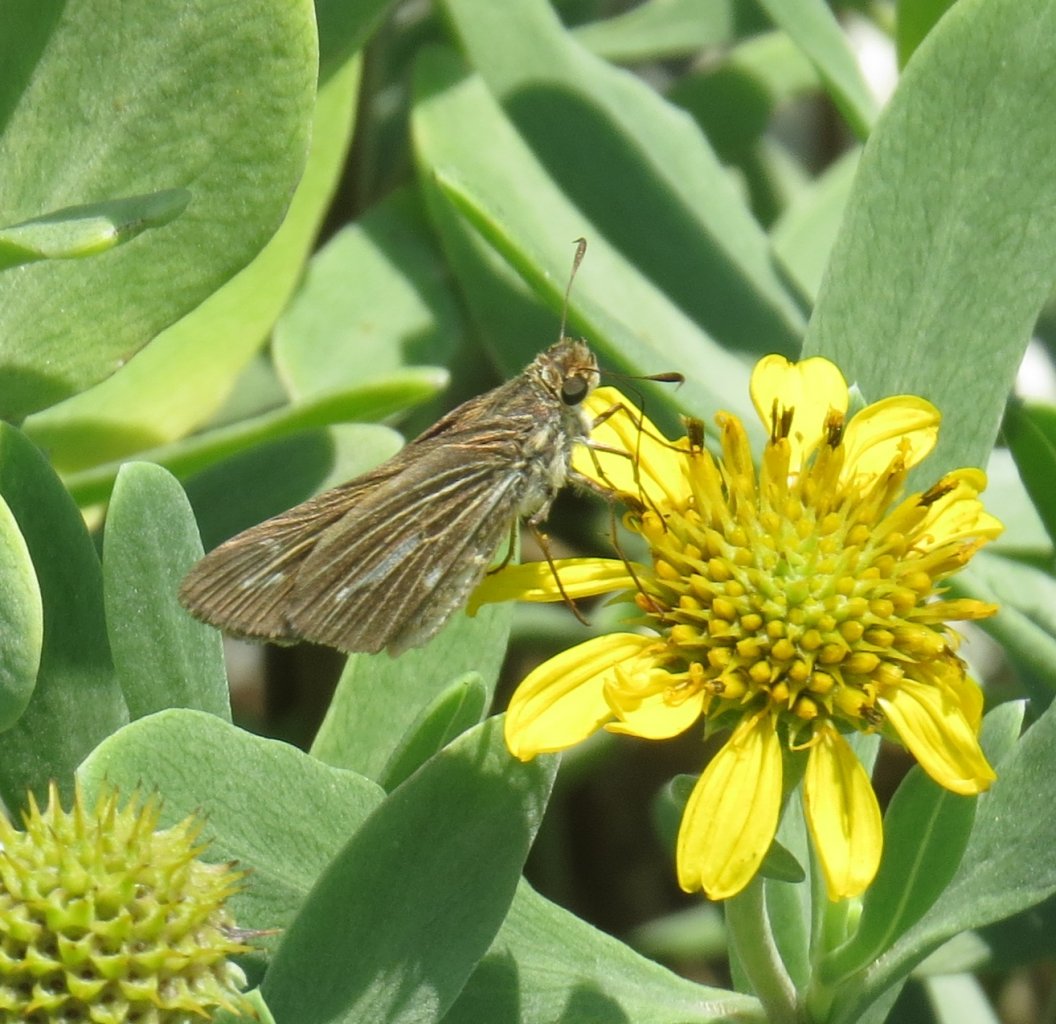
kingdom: Animalia
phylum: Arthropoda
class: Insecta
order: Lepidoptera
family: Hesperiidae
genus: Panoquina
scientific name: Panoquina panoquin
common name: Salt Marsh Skipper
